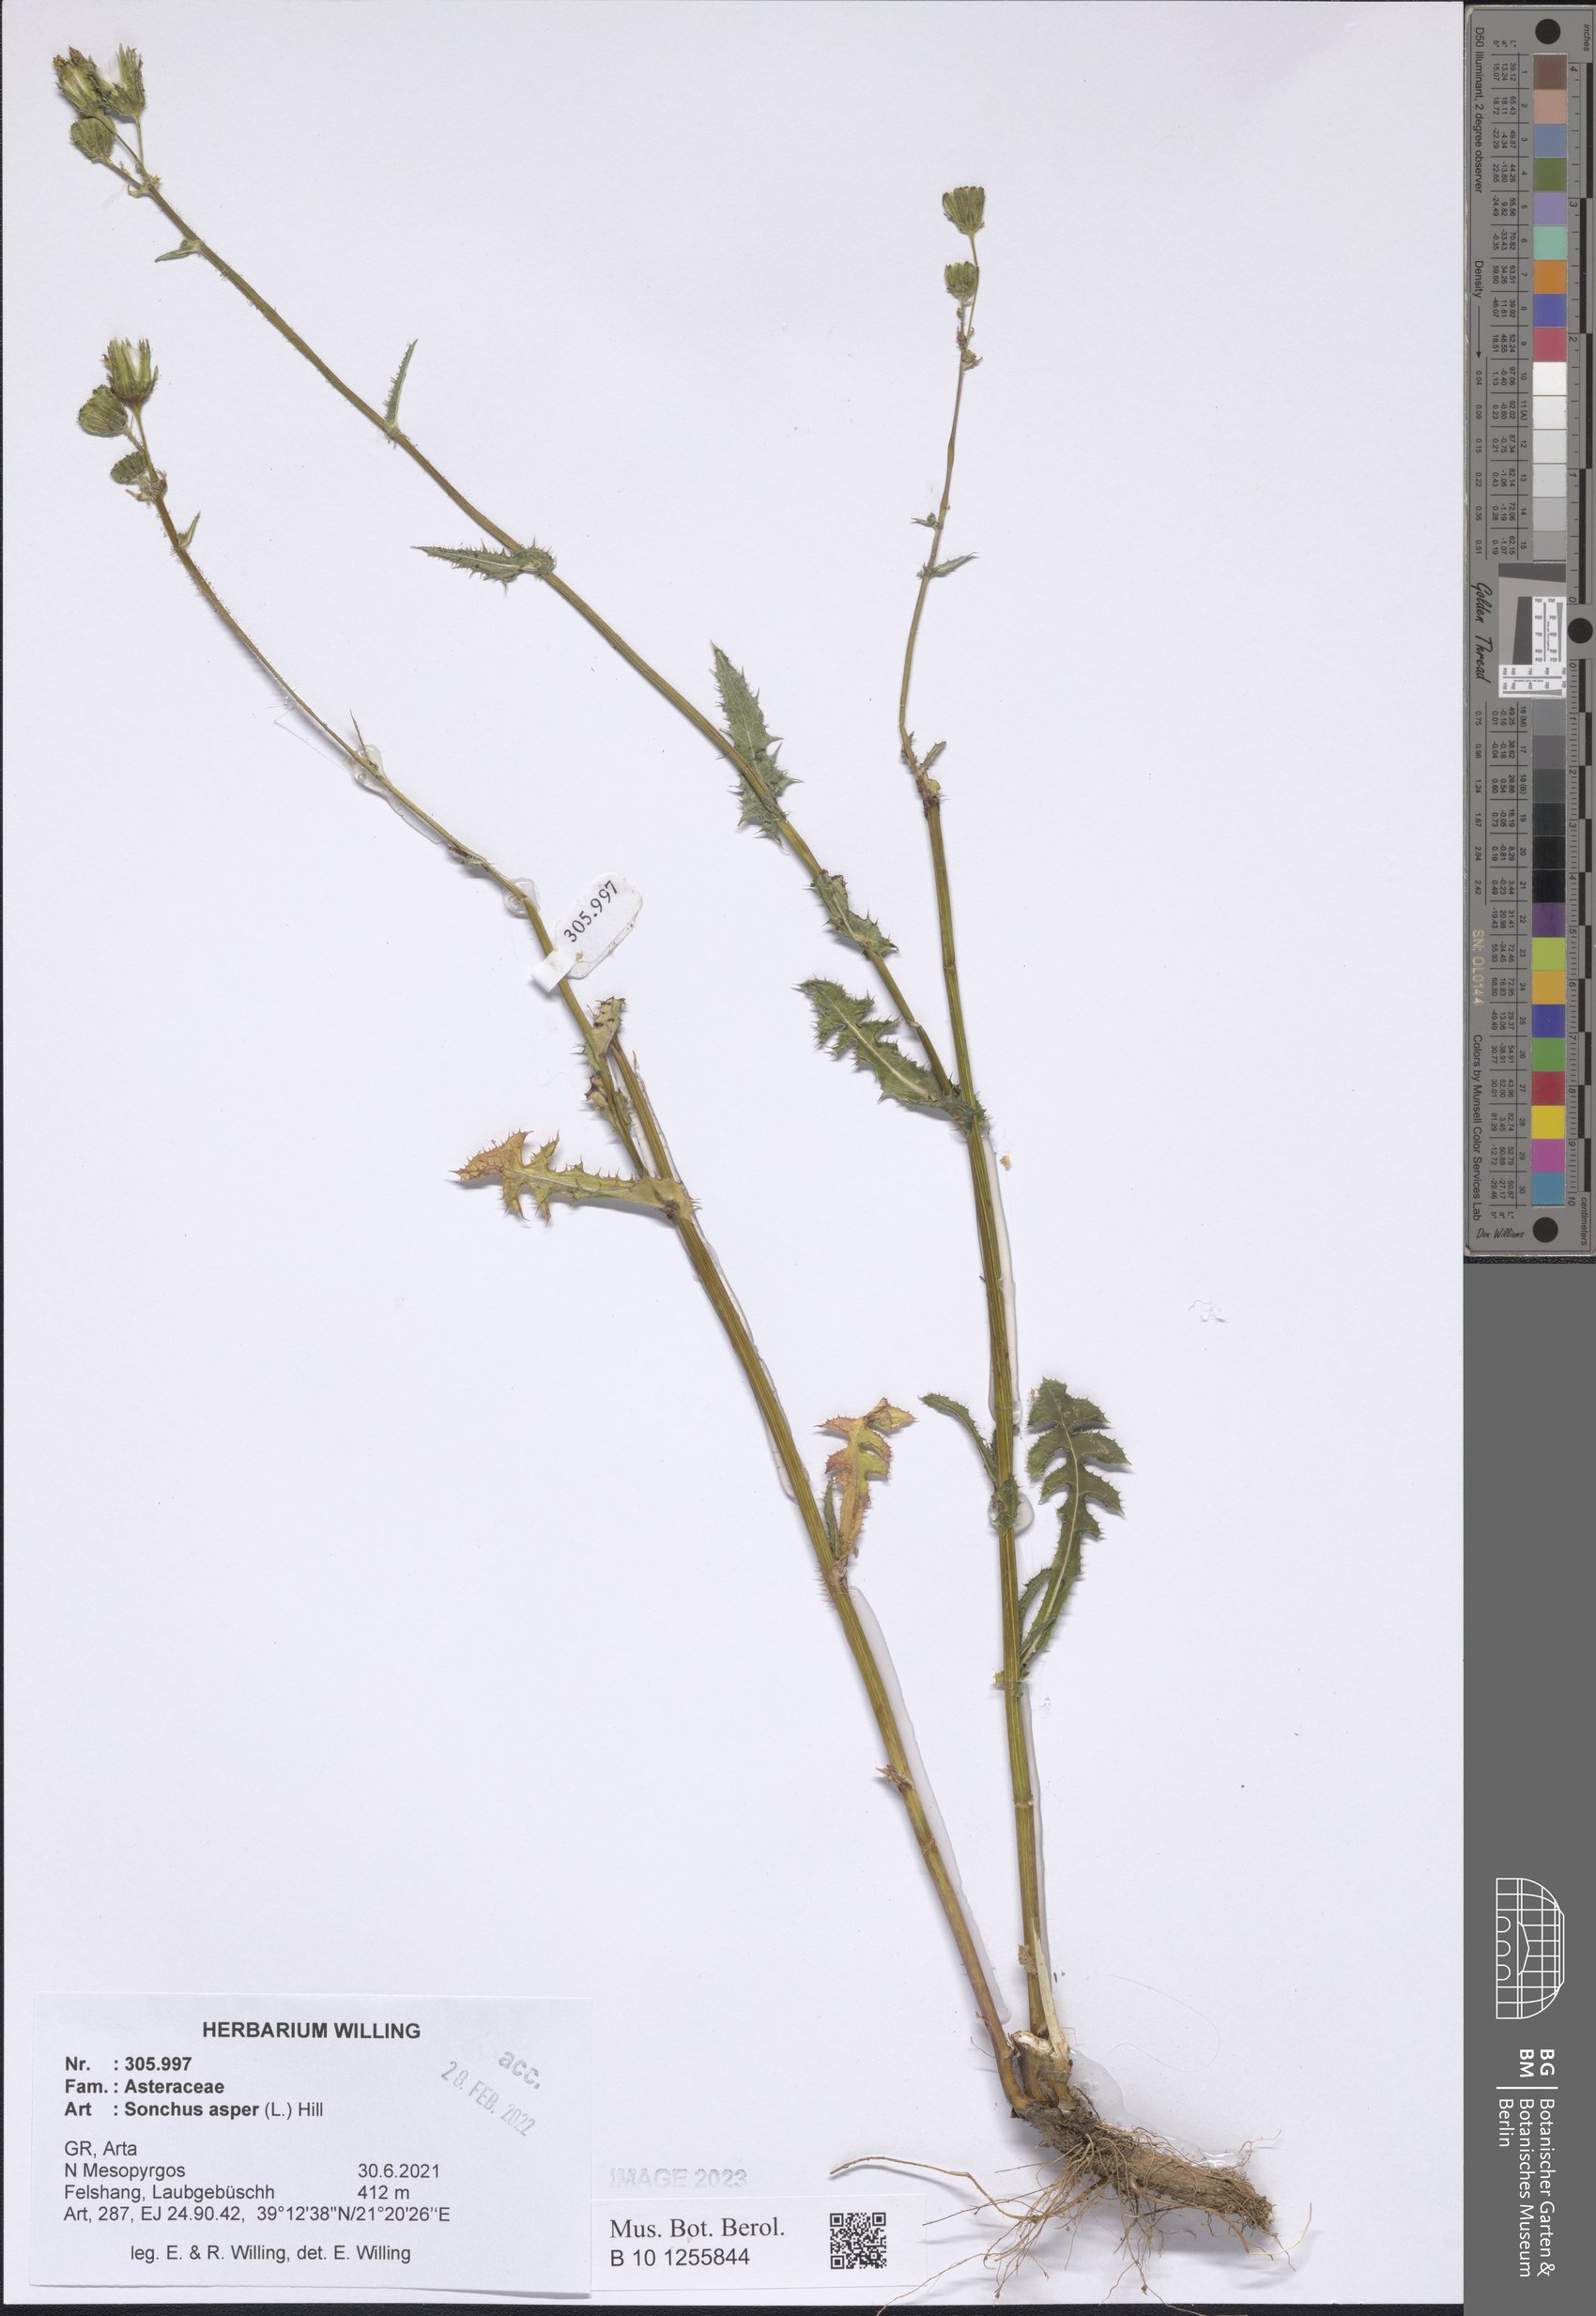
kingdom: Plantae
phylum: Tracheophyta
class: Magnoliopsida
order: Asterales
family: Asteraceae
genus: Sonchus
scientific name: Sonchus asper
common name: Prickly sow-thistle
